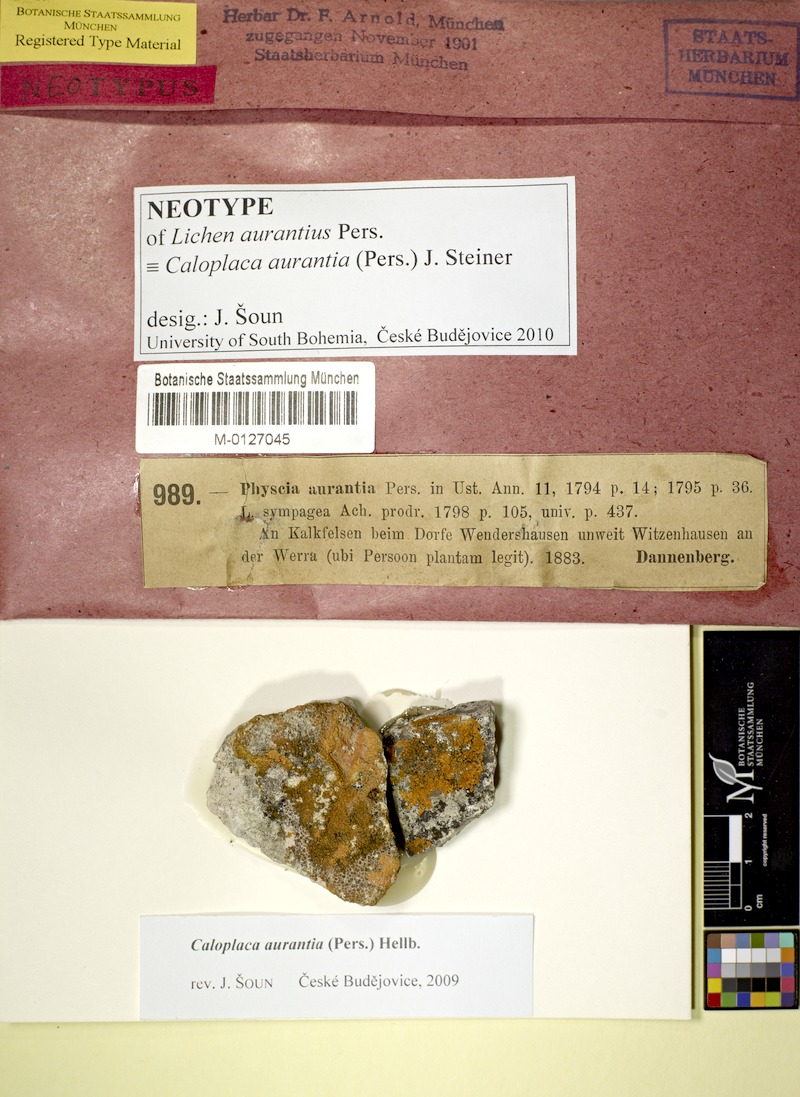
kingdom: Fungi
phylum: Ascomycota
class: Lecanoromycetes
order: Teloschistales
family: Teloschistaceae
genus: Variospora
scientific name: Variospora aurantia
